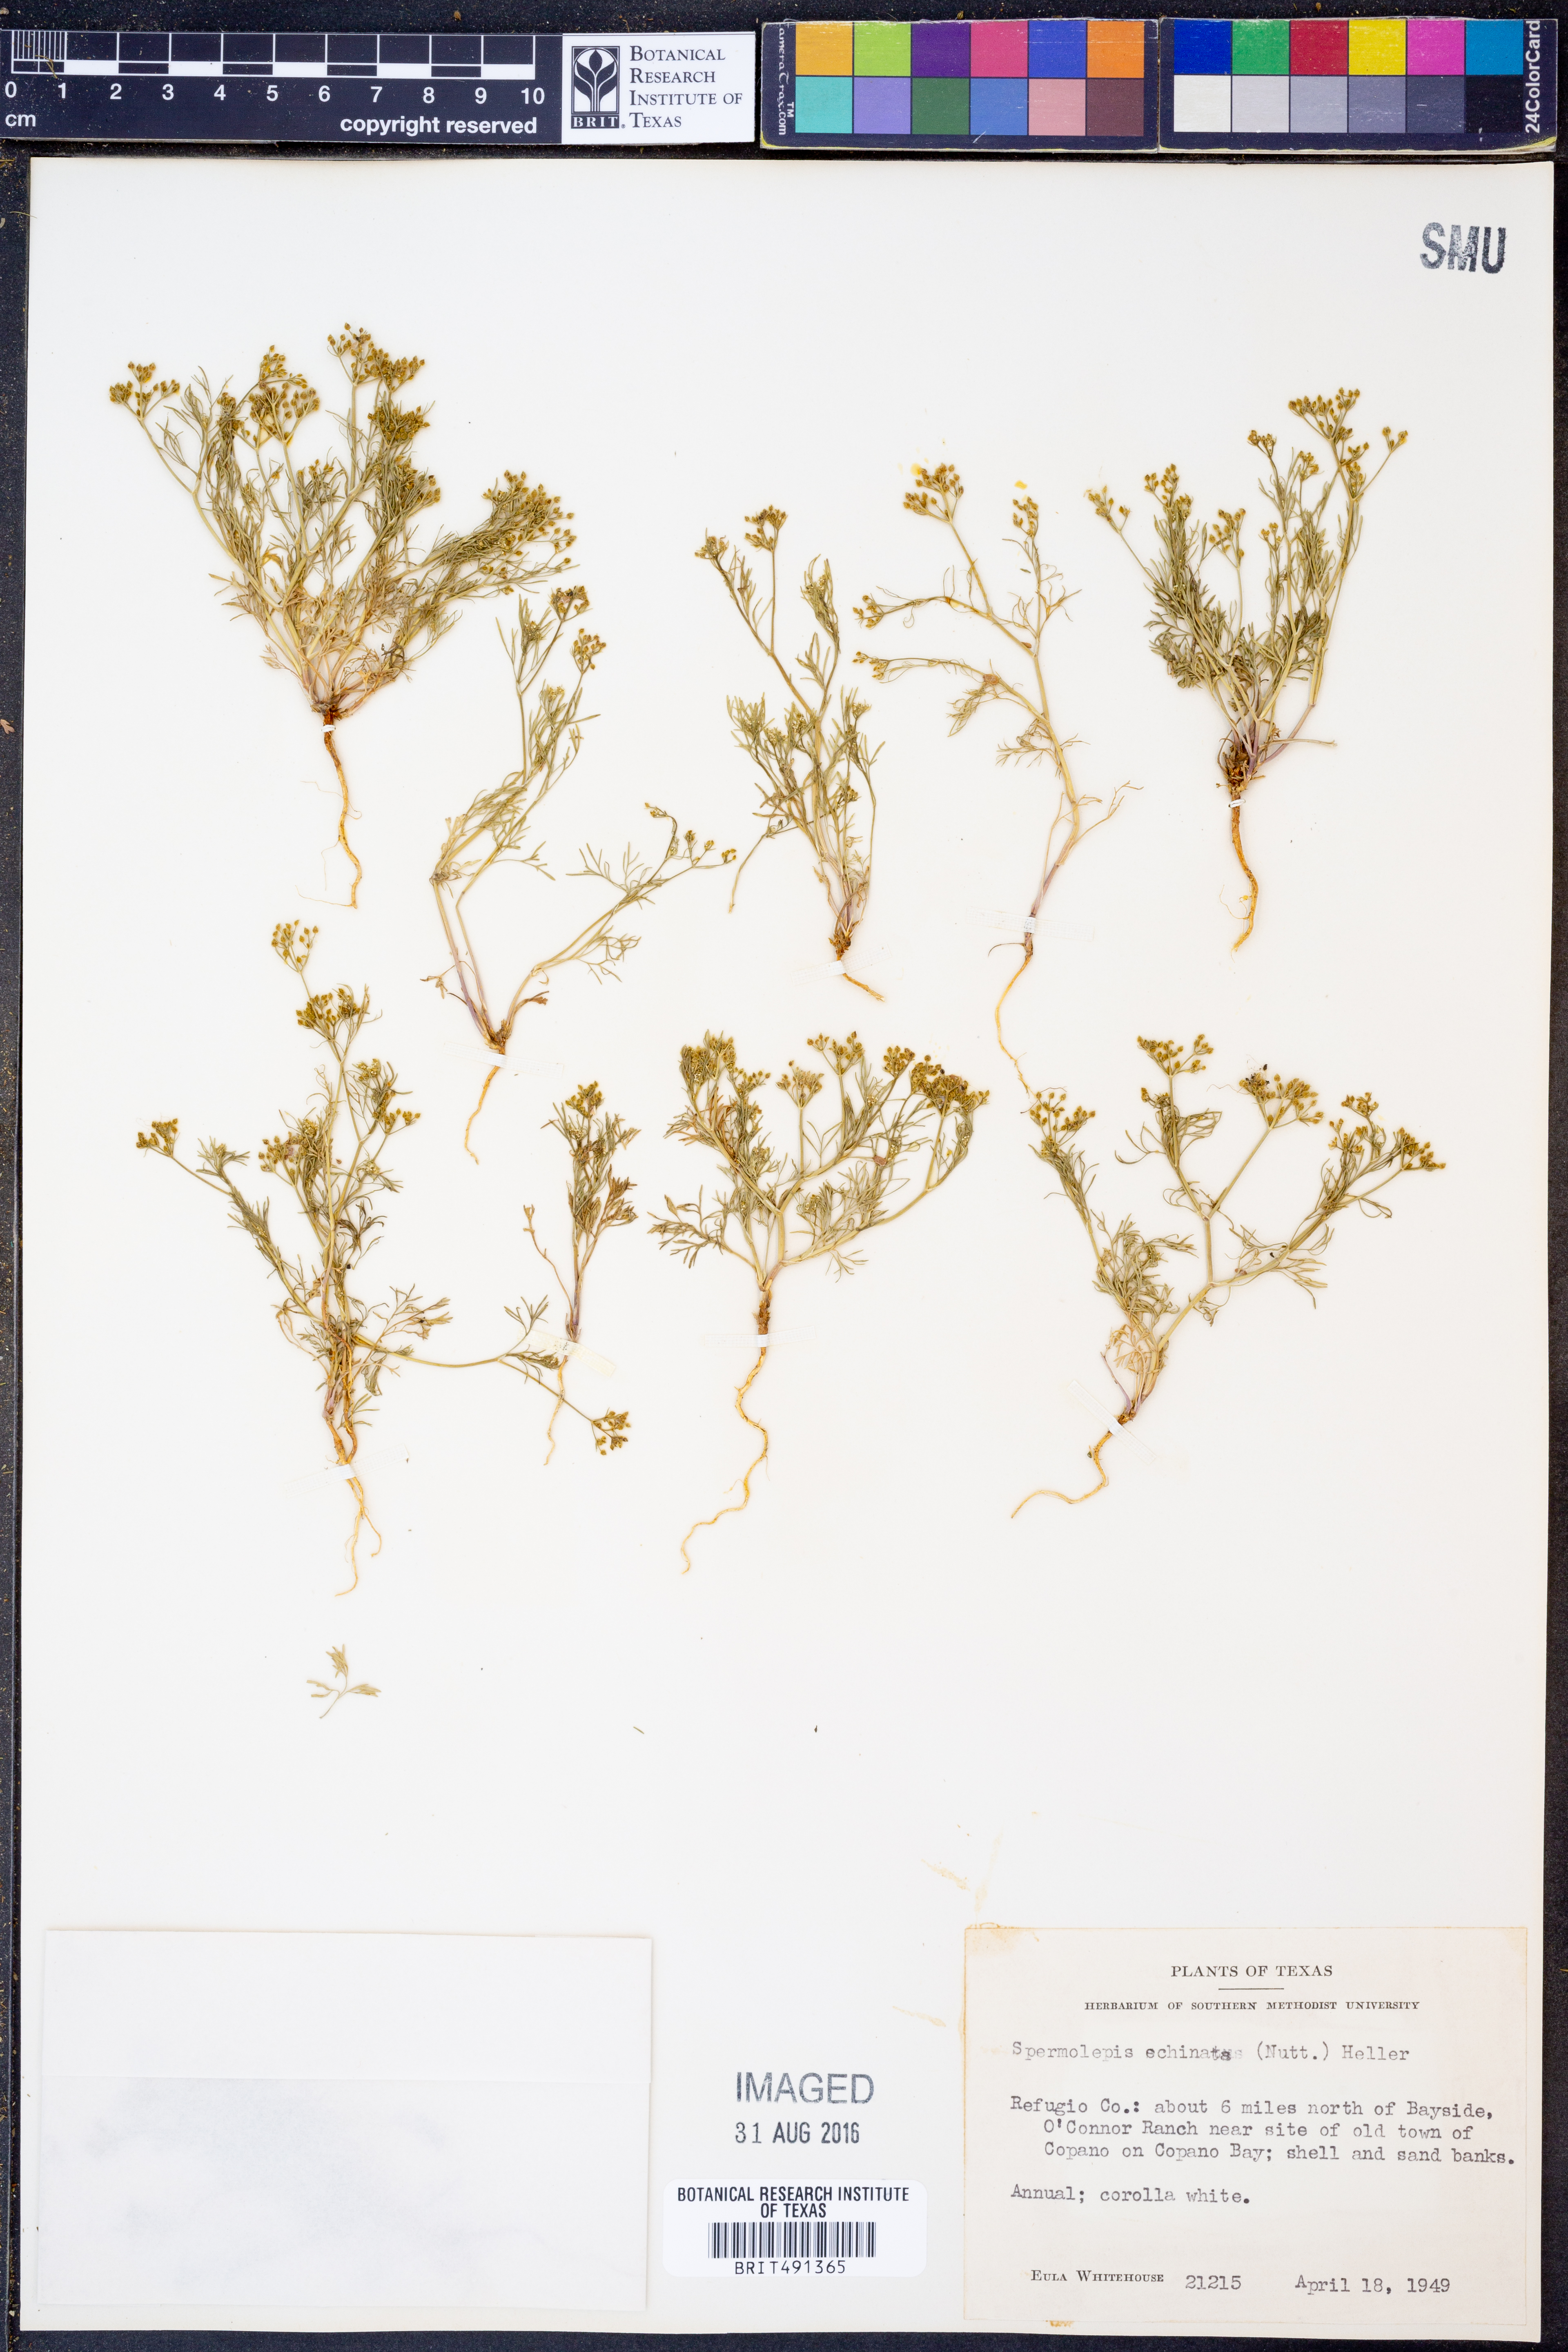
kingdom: Plantae
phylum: Tracheophyta
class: Magnoliopsida
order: Apiales
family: Apiaceae
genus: Spermolepis
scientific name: Spermolepis echinata
